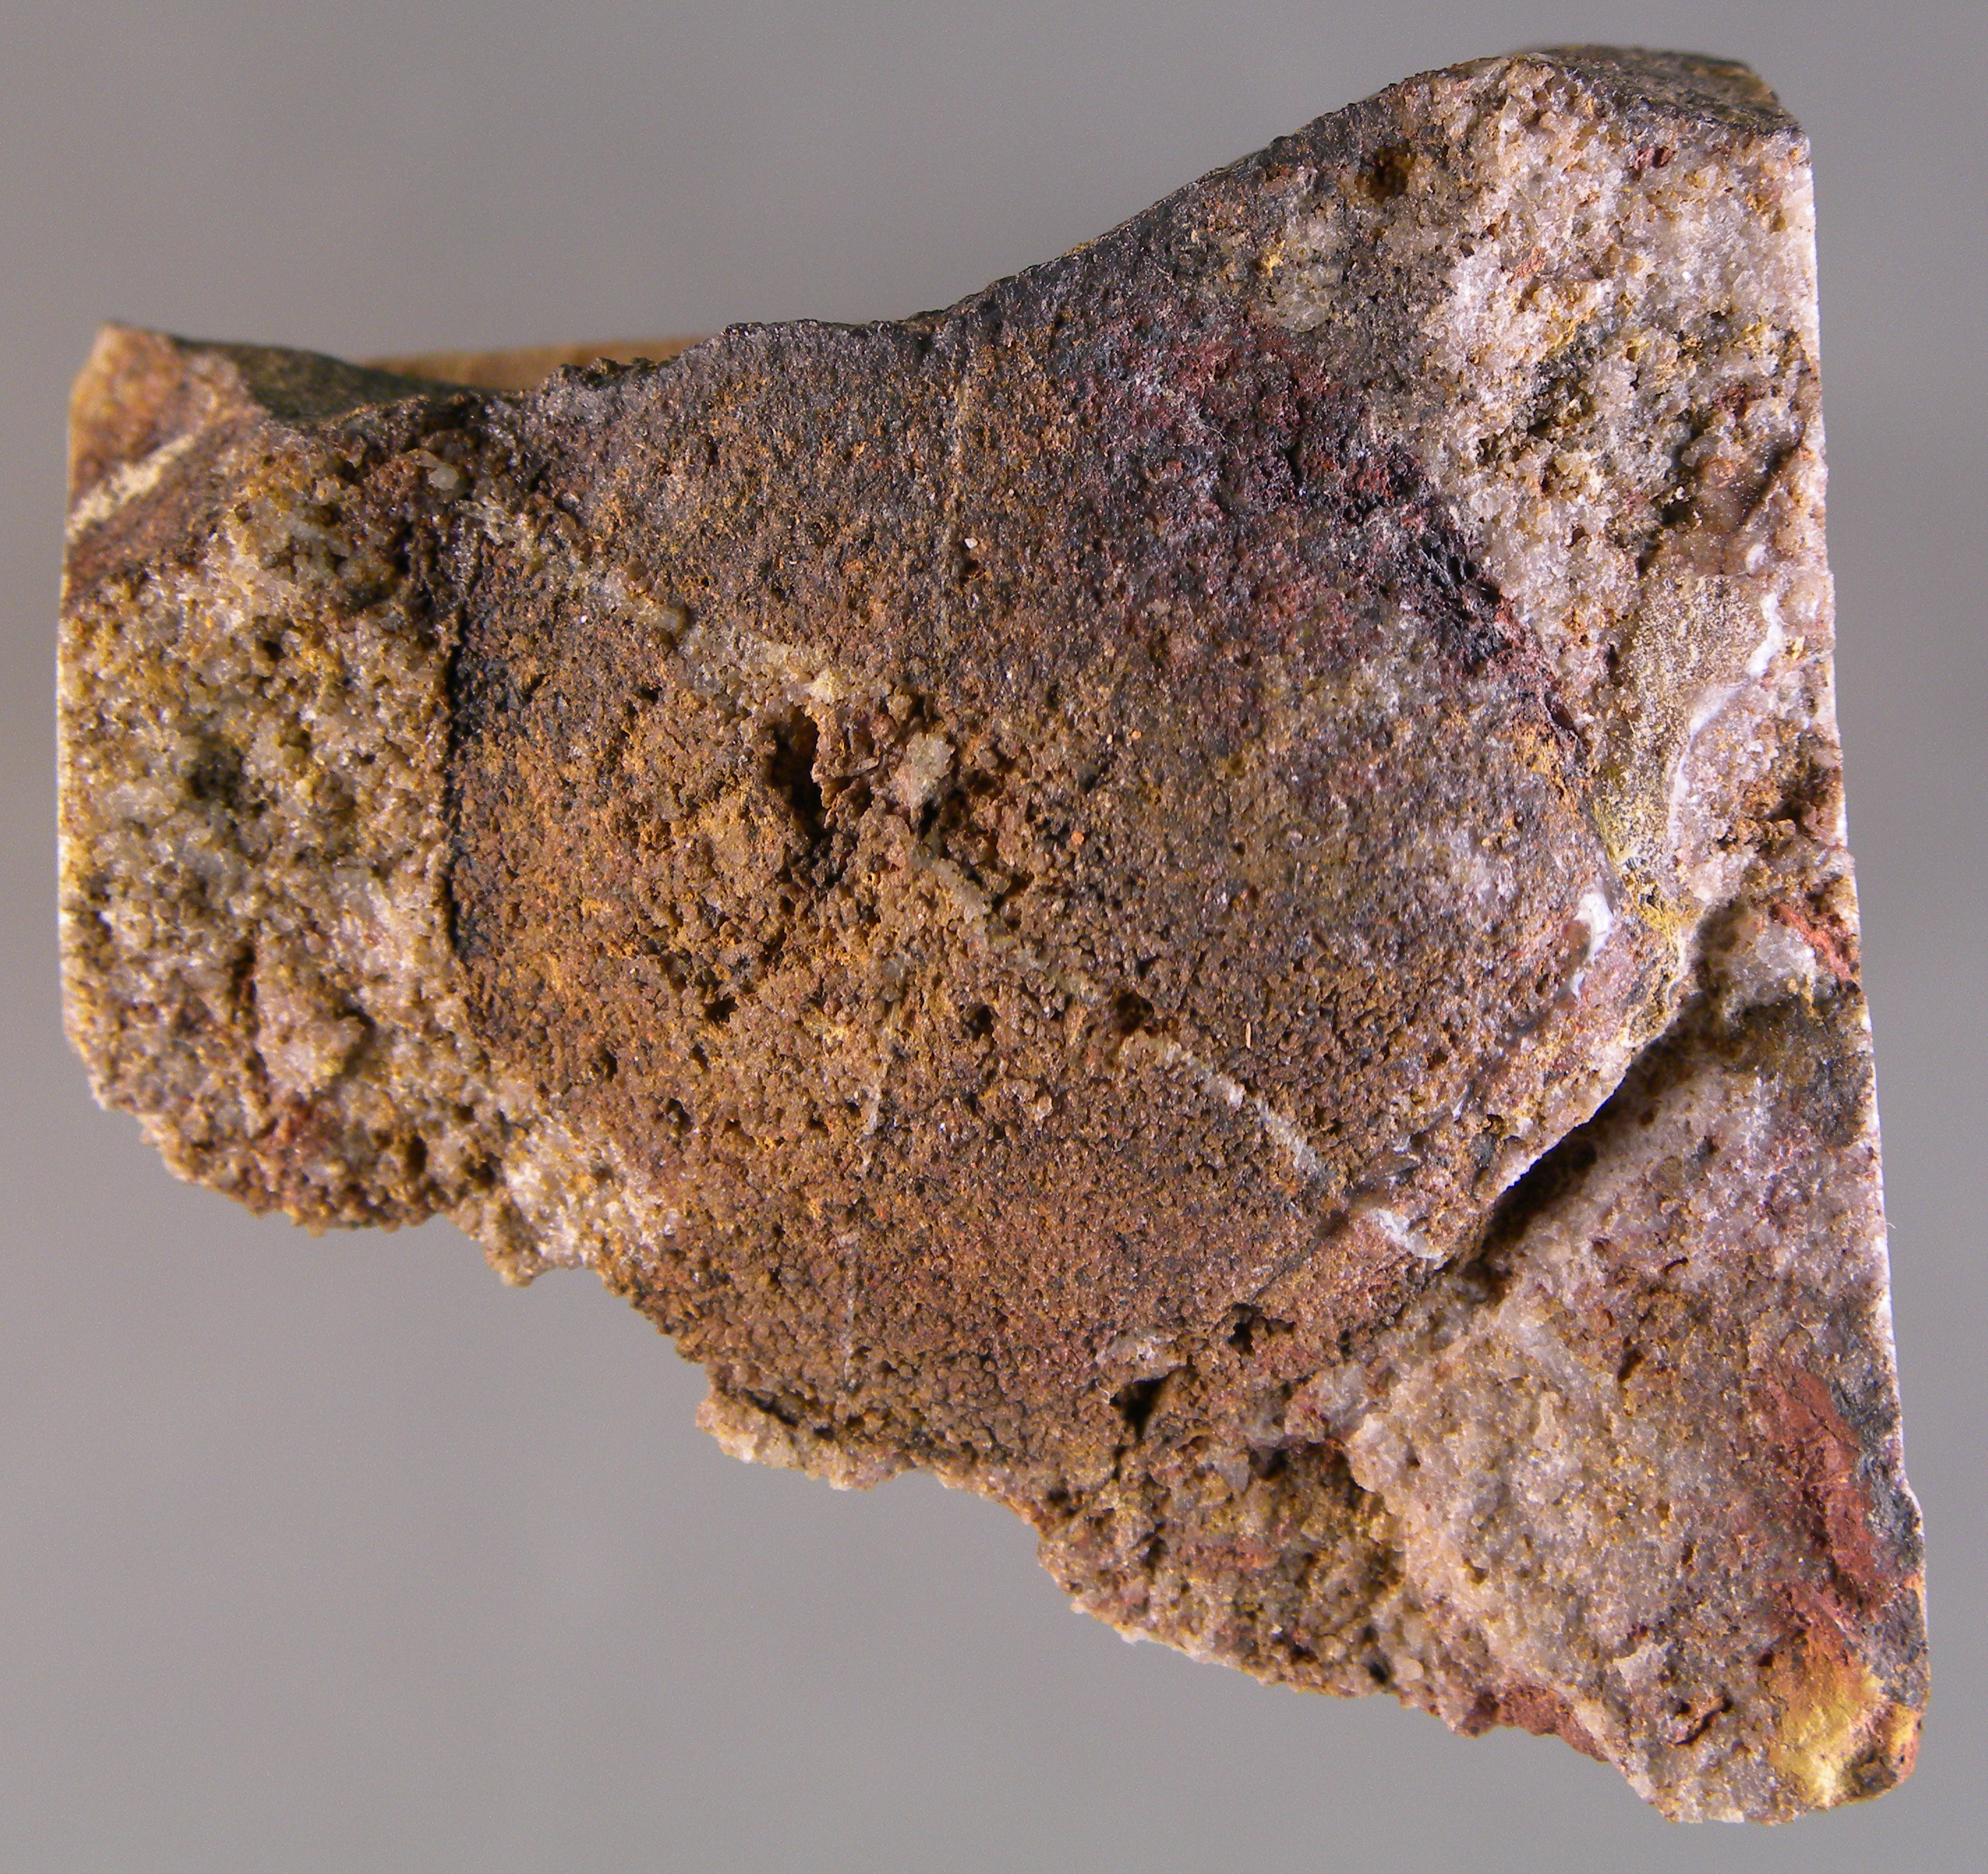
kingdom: Animalia
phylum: Mollusca
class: Bivalvia
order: Trigoniida
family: Myophoriidae
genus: Toechomya
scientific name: Toechomya
